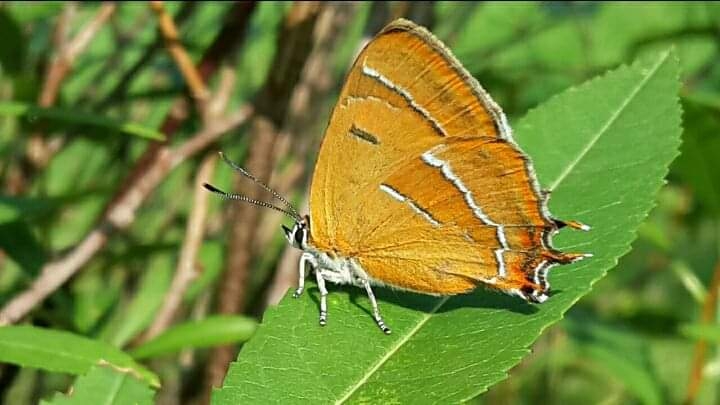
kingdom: Animalia
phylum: Arthropoda
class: Insecta
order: Lepidoptera
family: Lycaenidae
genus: Thecla
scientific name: Thecla betulae
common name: Guldhale
